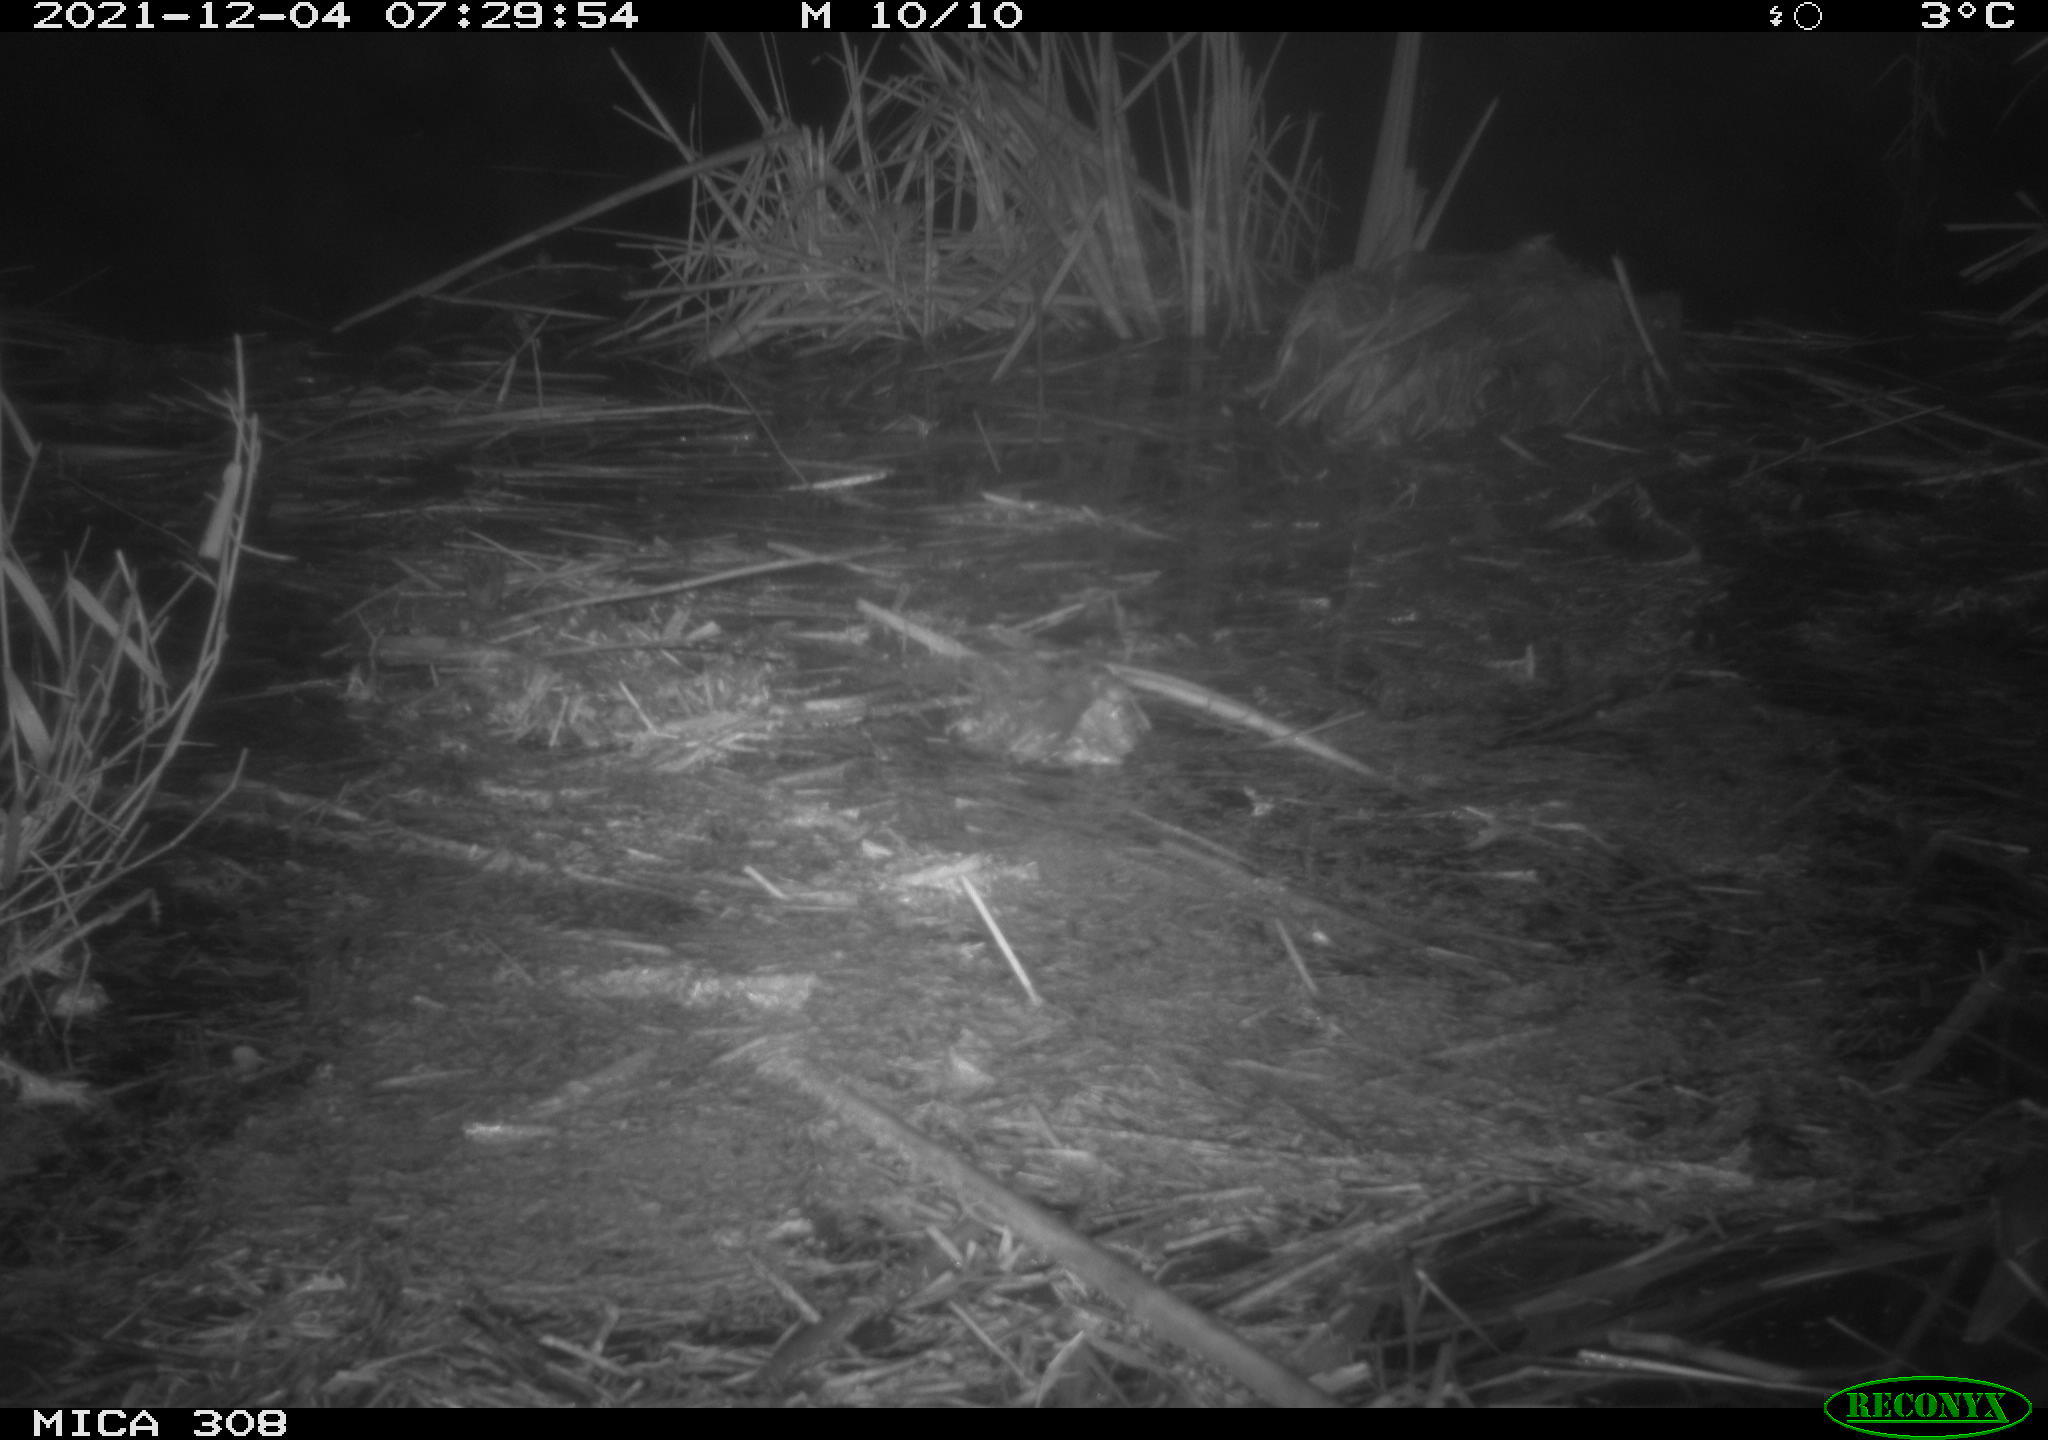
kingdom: Animalia
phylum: Chordata
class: Mammalia
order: Rodentia
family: Cricetidae
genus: Ondatra
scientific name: Ondatra zibethicus
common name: Muskrat
